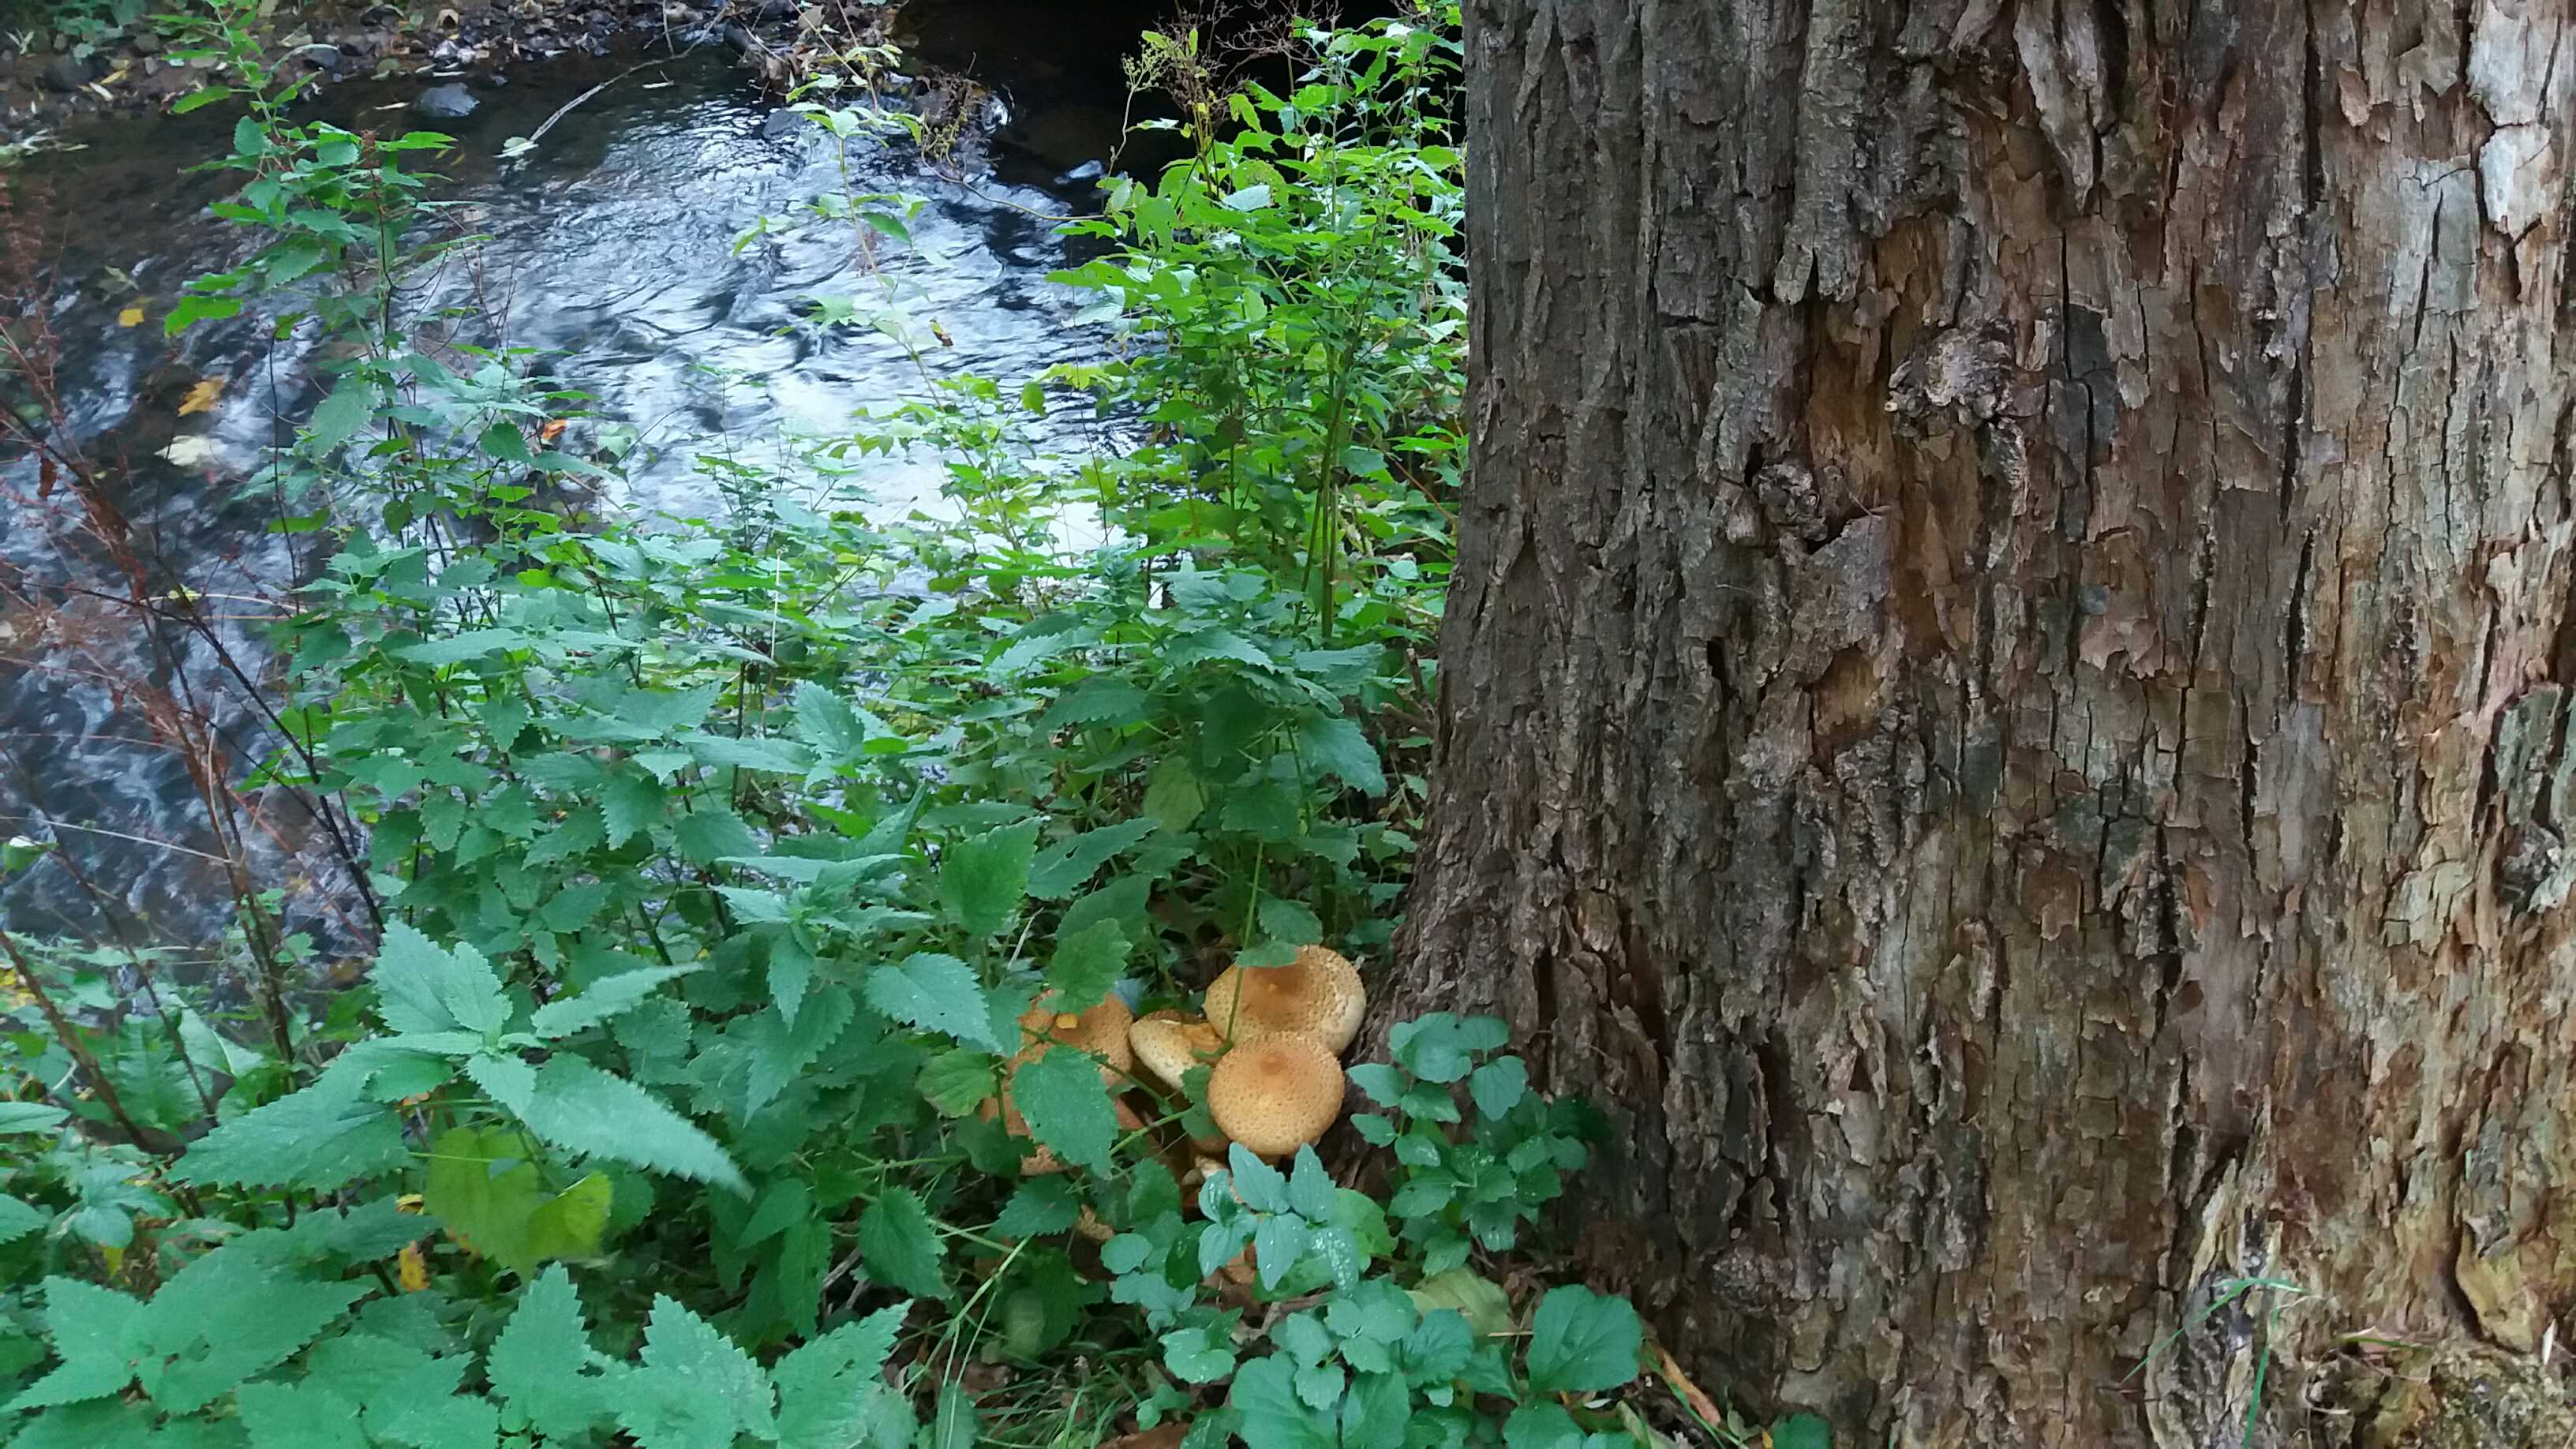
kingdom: Fungi
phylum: Basidiomycota
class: Agaricomycetes
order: Agaricales
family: Strophariaceae
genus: Pholiota
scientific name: Pholiota squarrosa
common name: krumskællet skælhat
